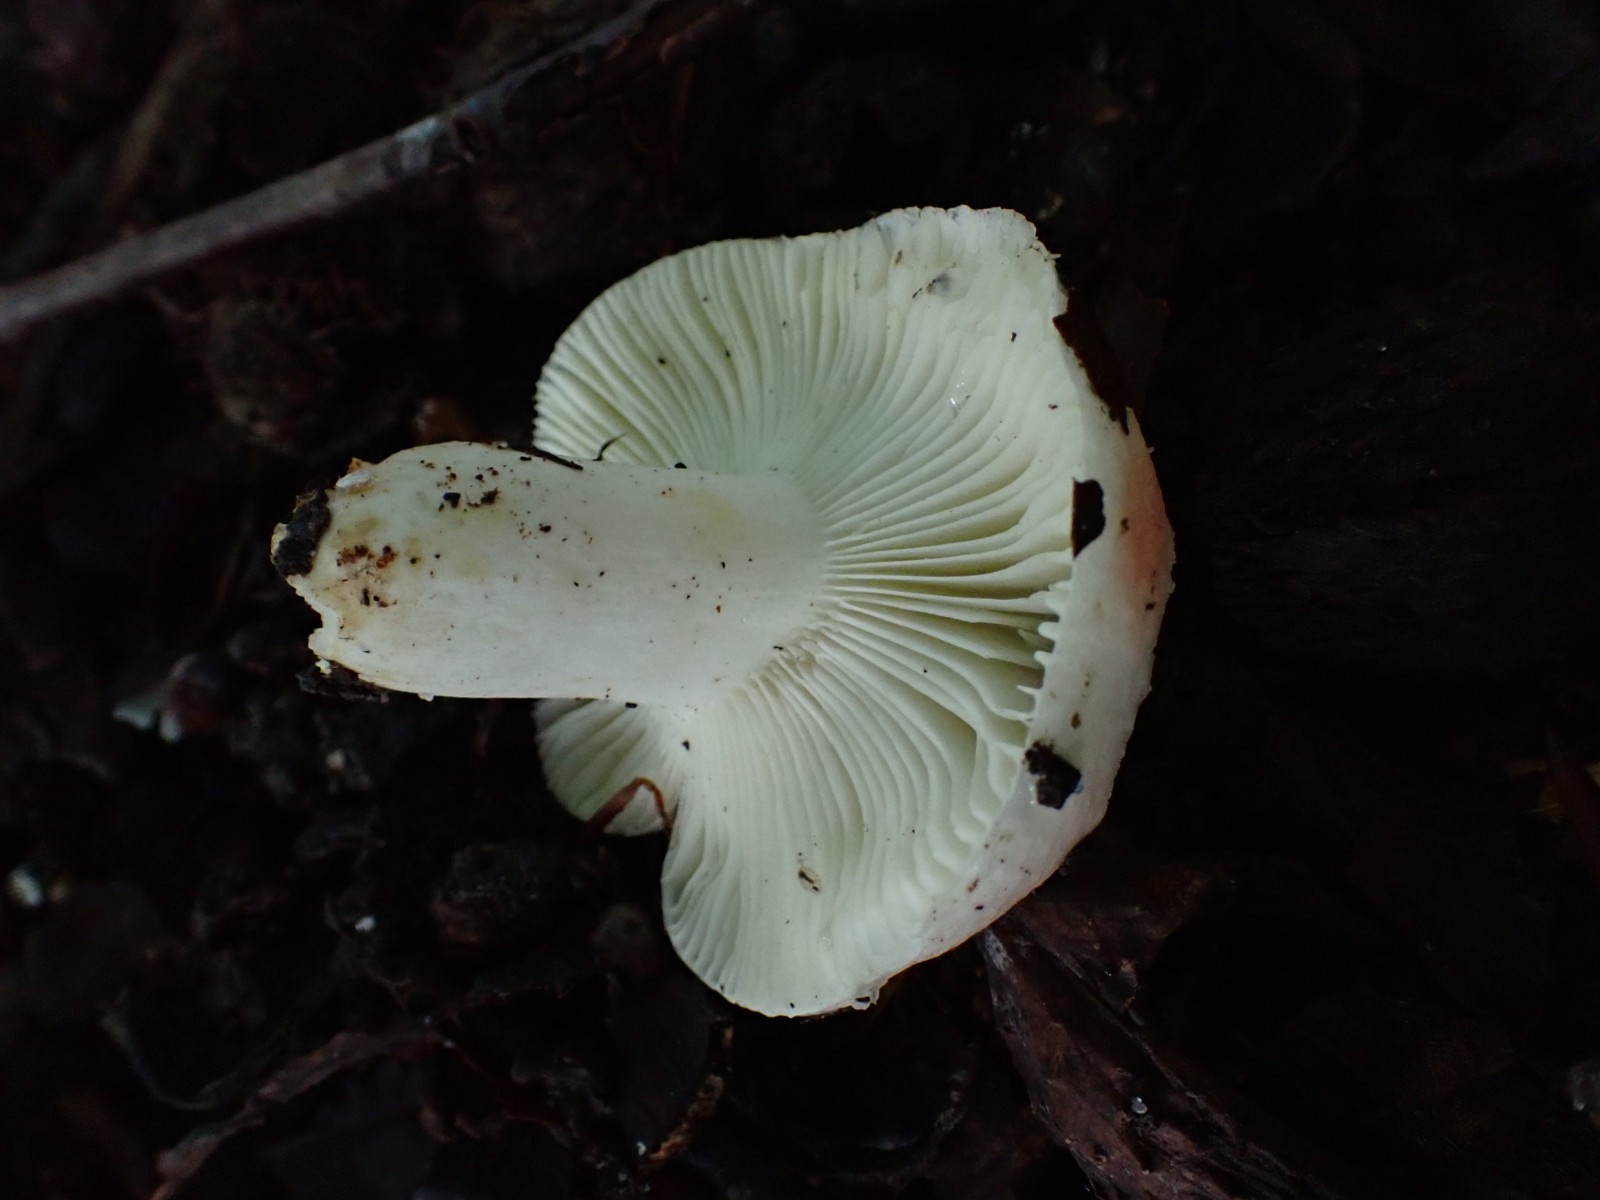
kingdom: Fungi
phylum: Basidiomycota
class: Agaricomycetes
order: Russulales
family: Russulaceae
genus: Russula
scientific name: Russula luteotacta
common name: gulplettet gift-skørhat
